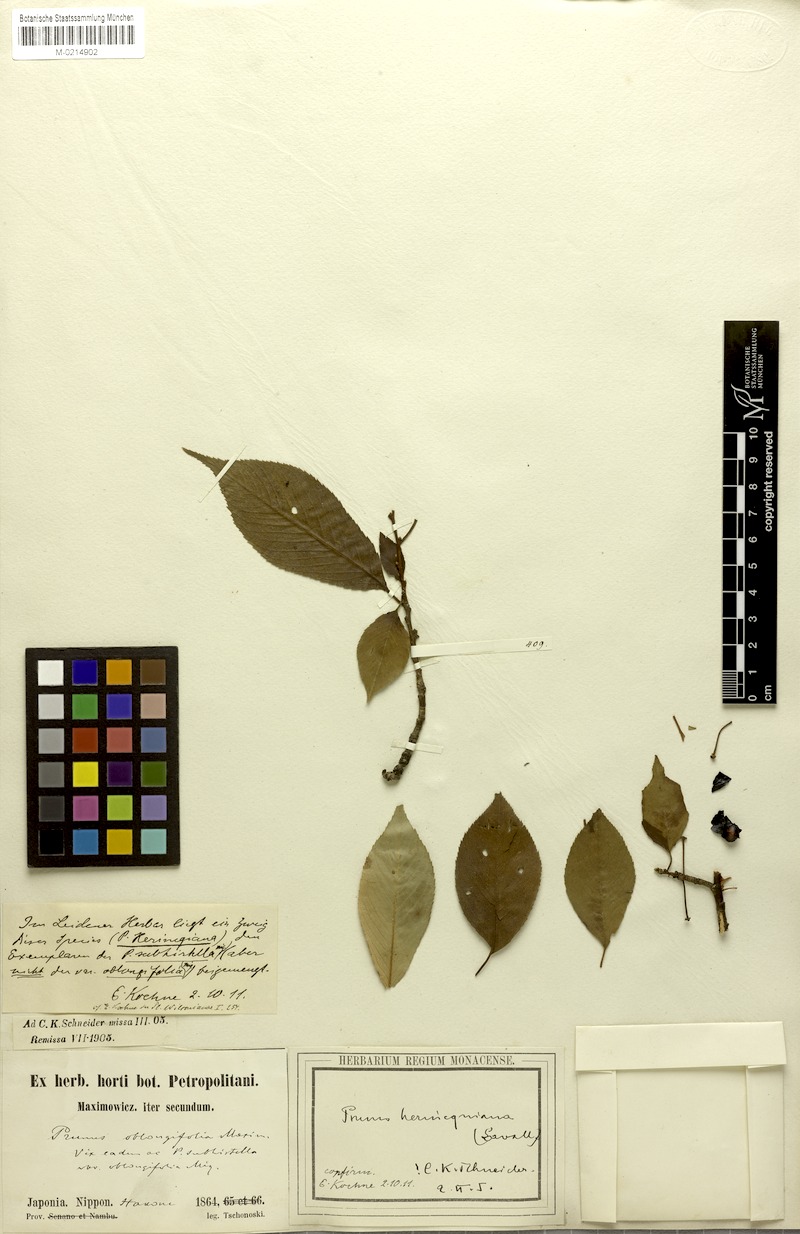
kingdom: Plantae
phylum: Tracheophyta
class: Magnoliopsida
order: Rosales
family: Rosaceae
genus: Prunus
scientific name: Prunus itosakura
